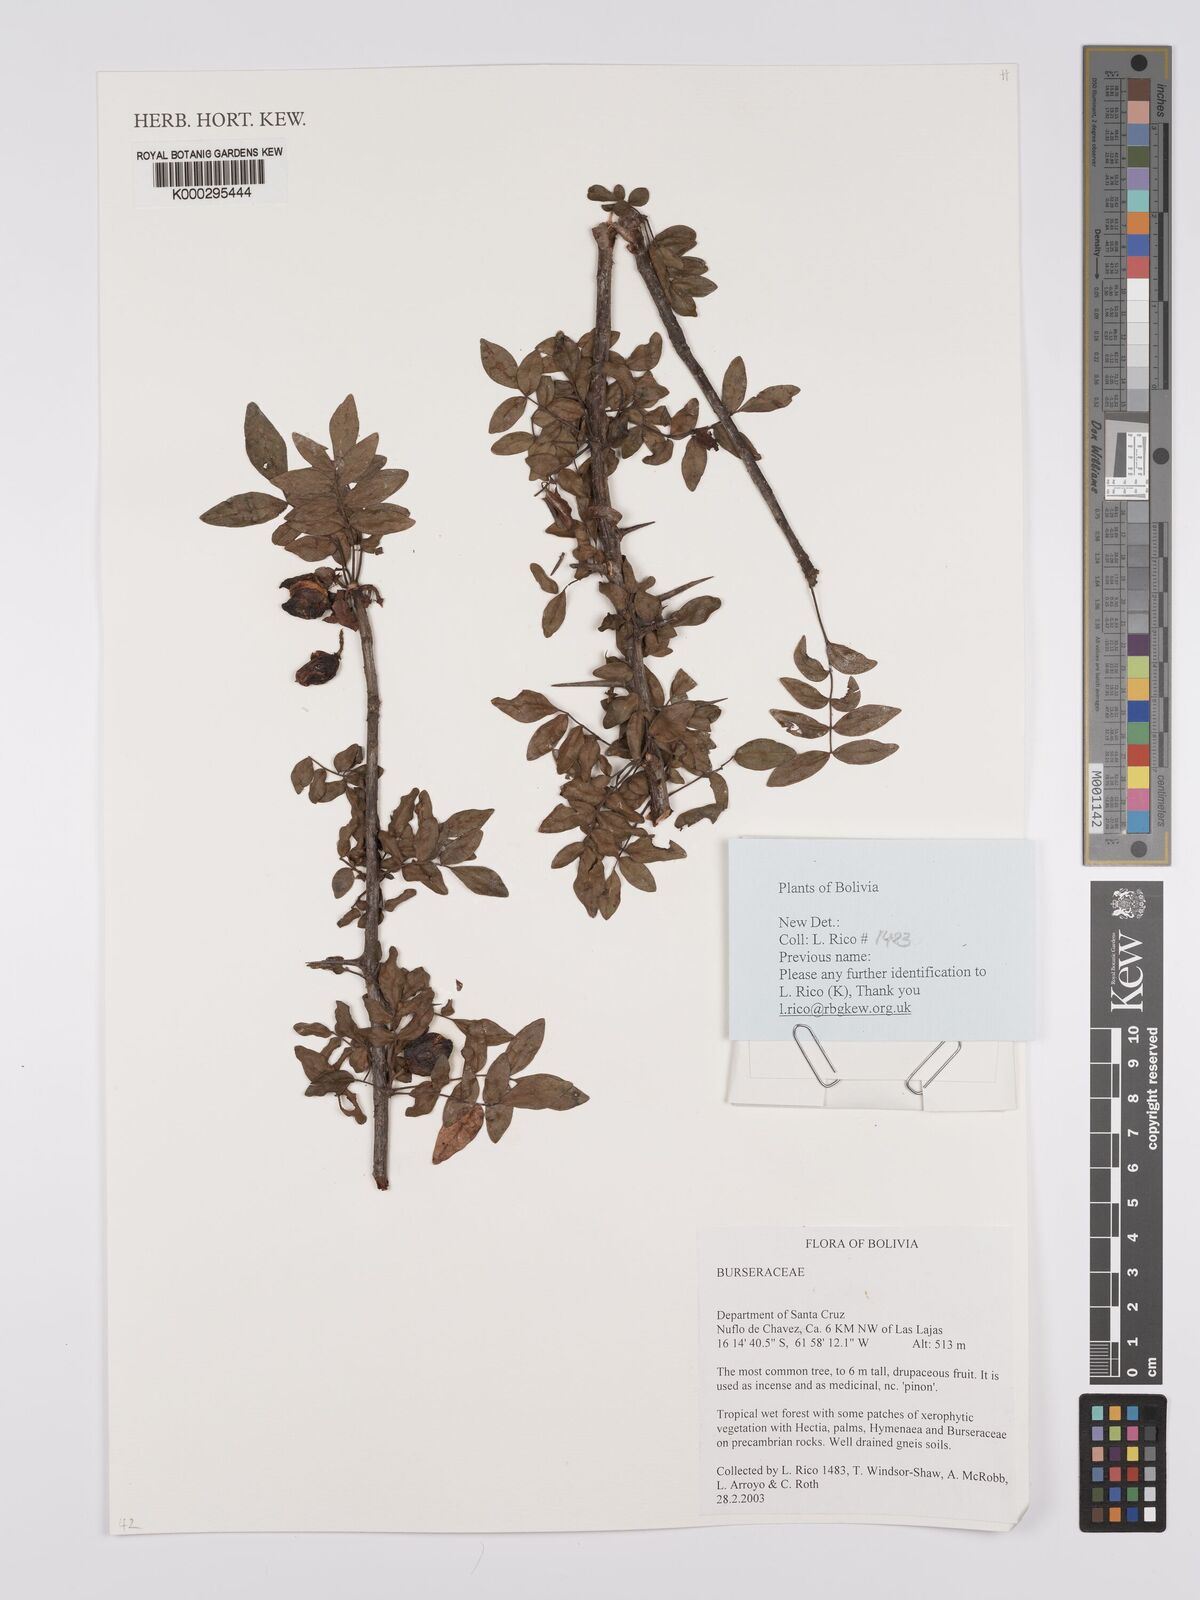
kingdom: Plantae
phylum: Tracheophyta
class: Magnoliopsida
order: Sapindales
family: Burseraceae
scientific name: Burseraceae
